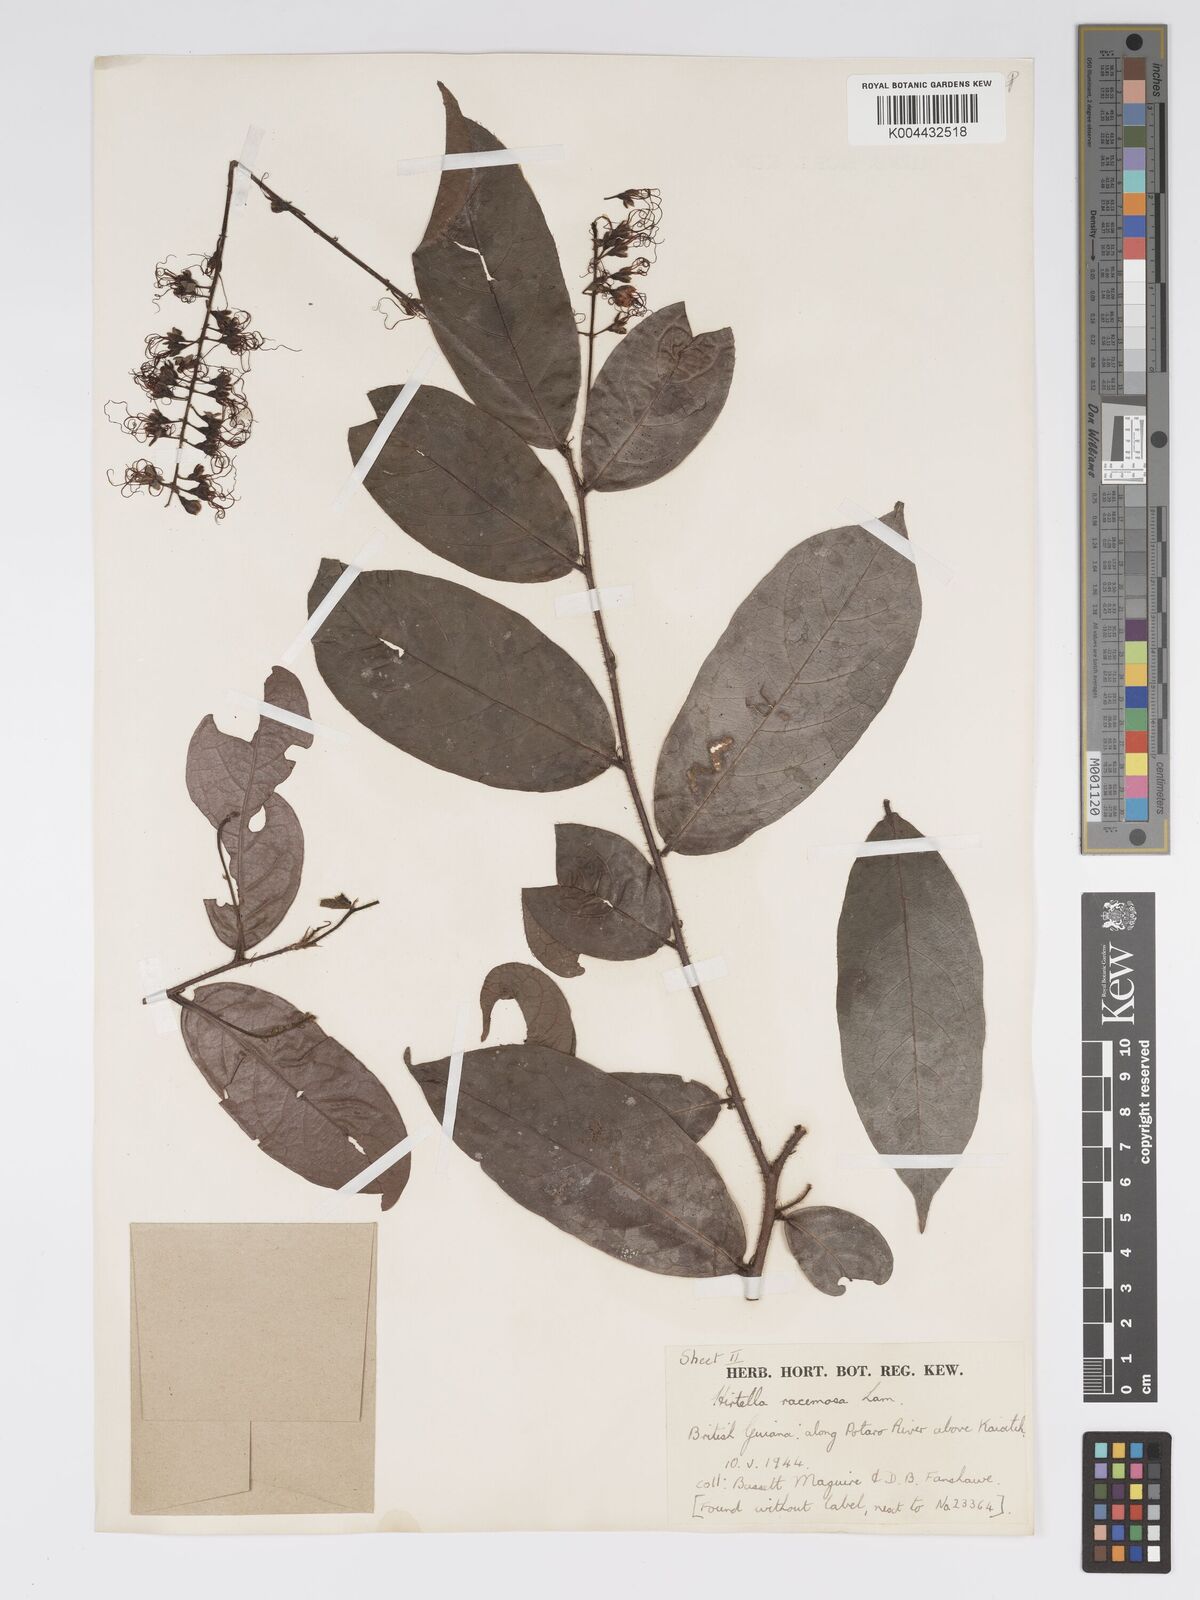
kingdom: Plantae
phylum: Tracheophyta
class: Magnoliopsida
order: Malpighiales
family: Chrysobalanaceae
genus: Hirtella
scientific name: Hirtella
